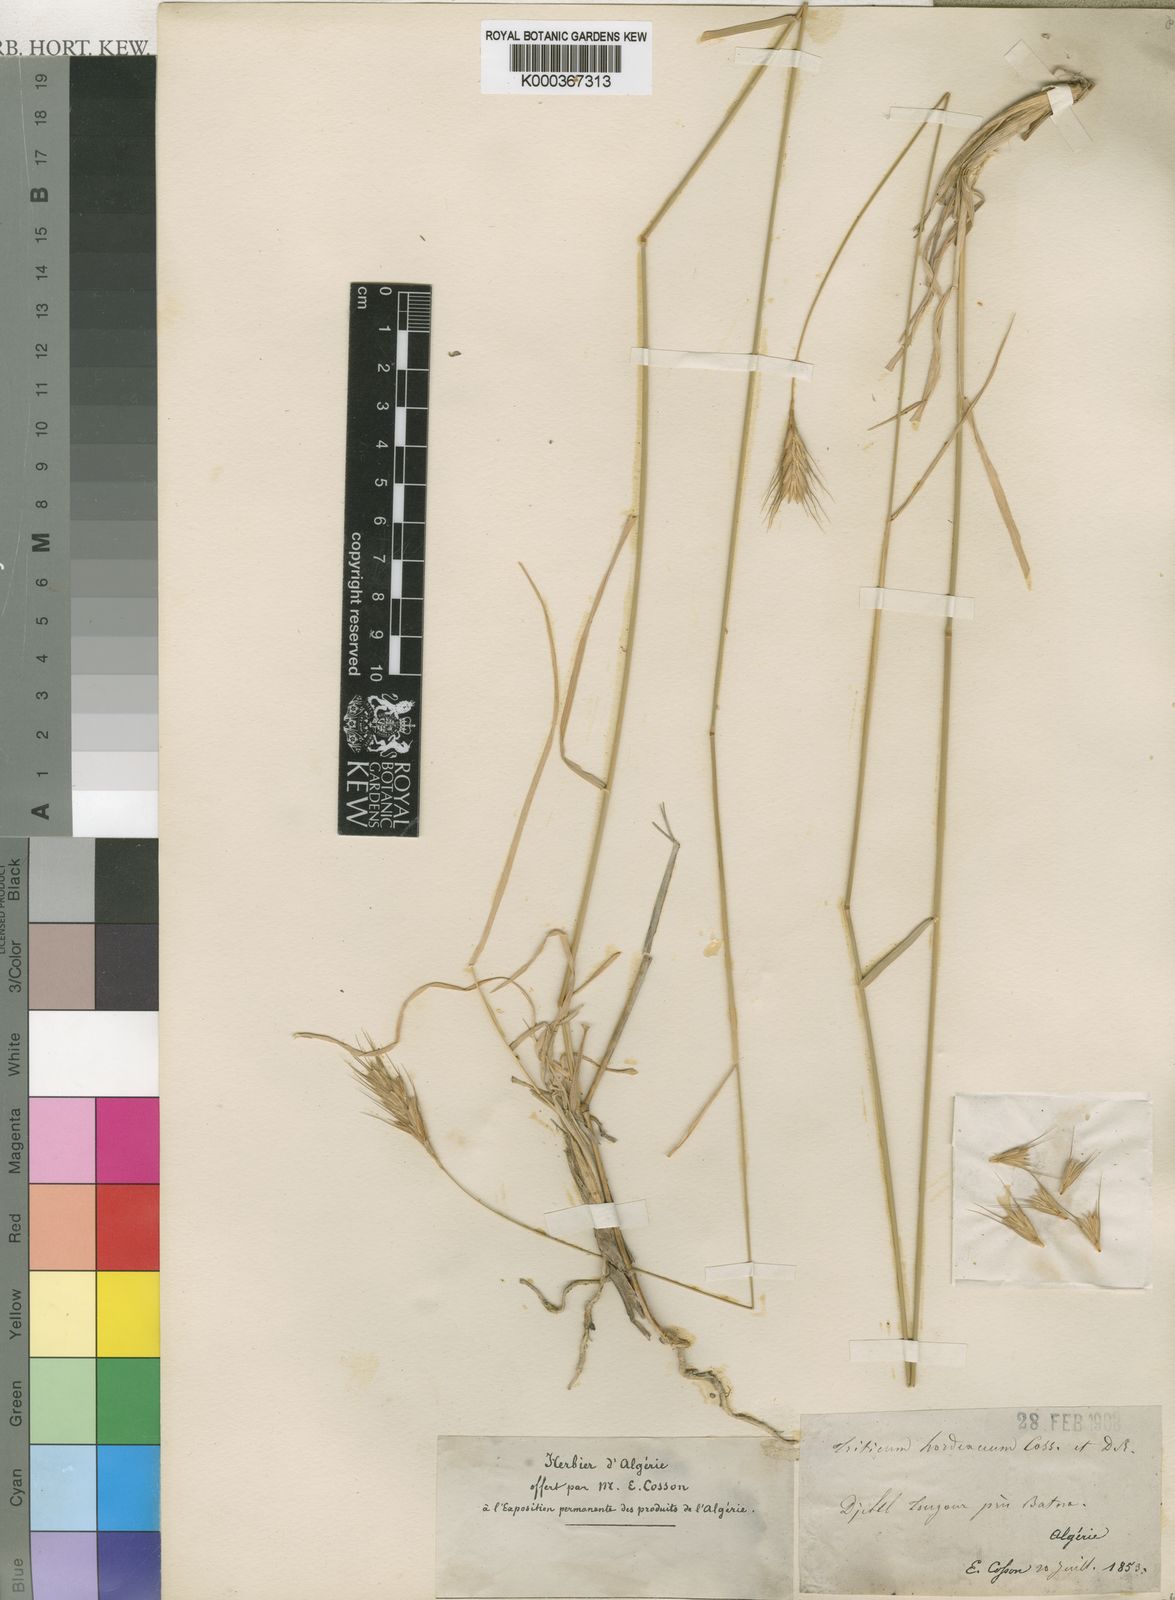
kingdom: Plantae
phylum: Tracheophyta
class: Liliopsida
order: Poales
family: Poaceae
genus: Dasypyrum
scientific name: Dasypyrum hordeaceum
